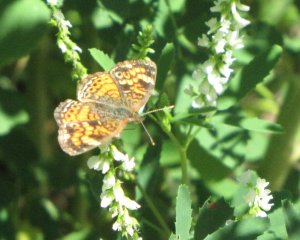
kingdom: Animalia
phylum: Arthropoda
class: Insecta
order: Lepidoptera
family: Nymphalidae
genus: Phyciodes
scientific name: Phyciodes tharos
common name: Northern Crescent
